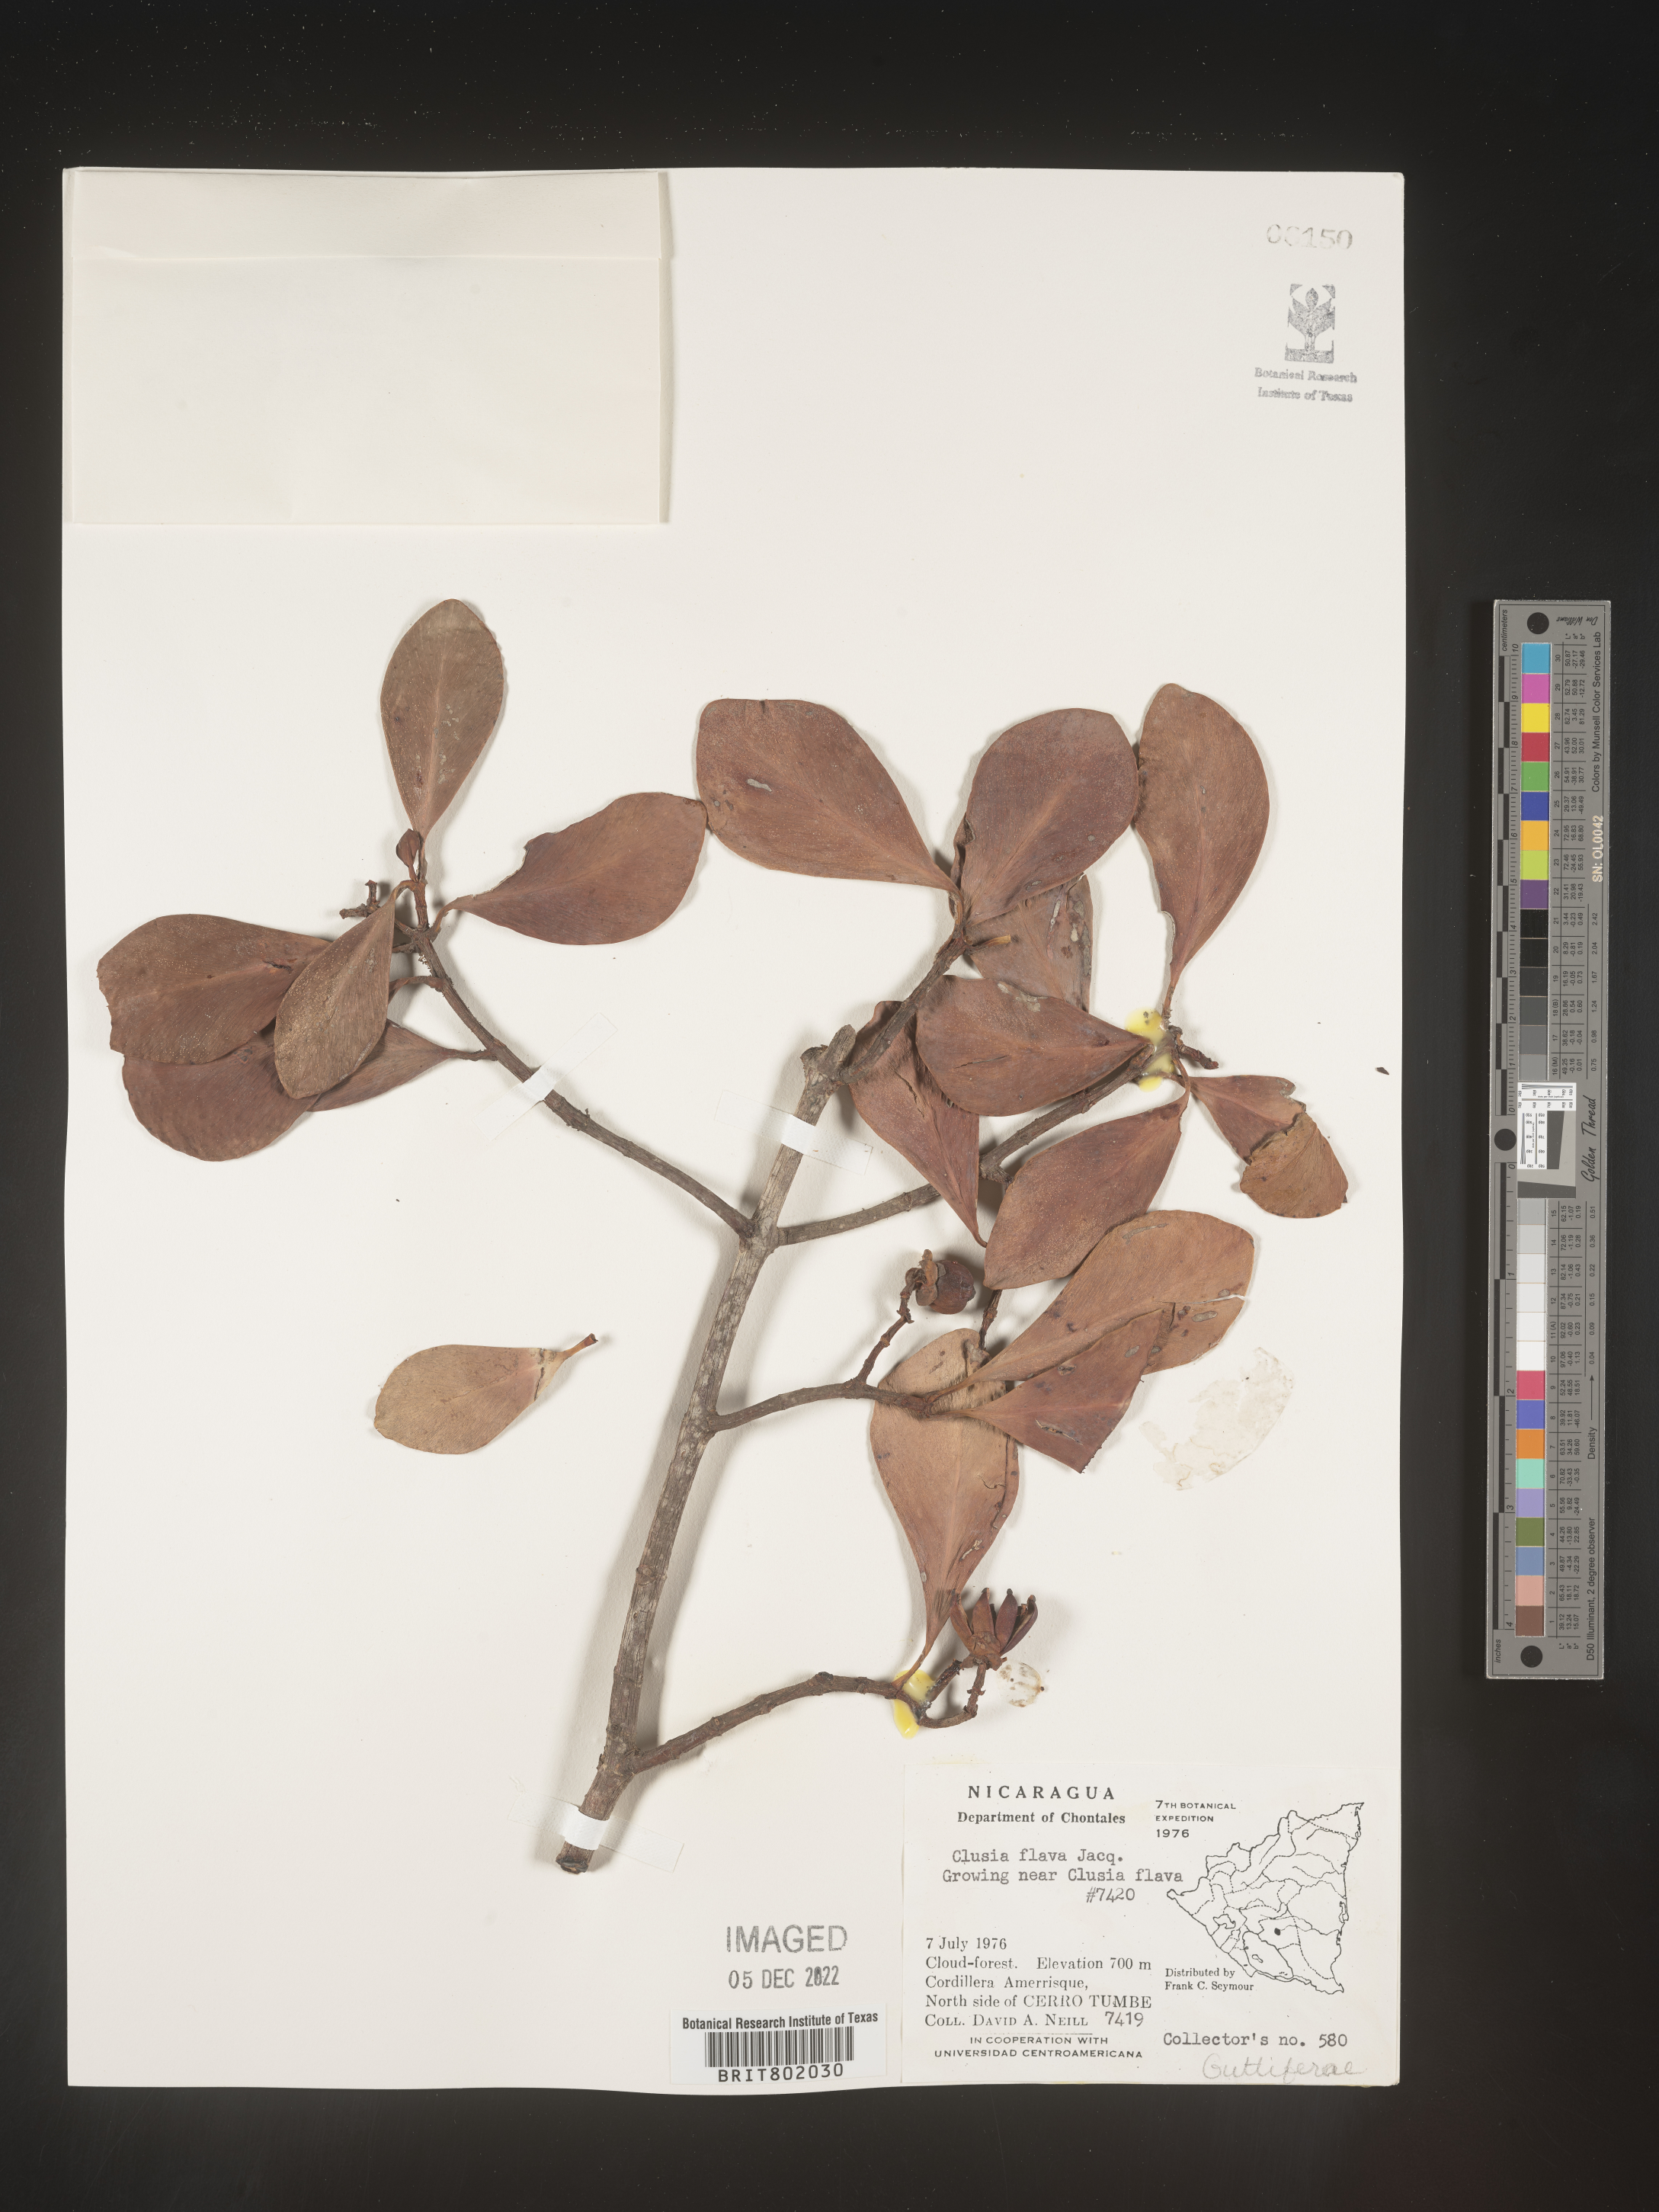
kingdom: Plantae
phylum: Tracheophyta
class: Magnoliopsida
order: Malpighiales
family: Clusiaceae
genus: Clusia
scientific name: Clusia
